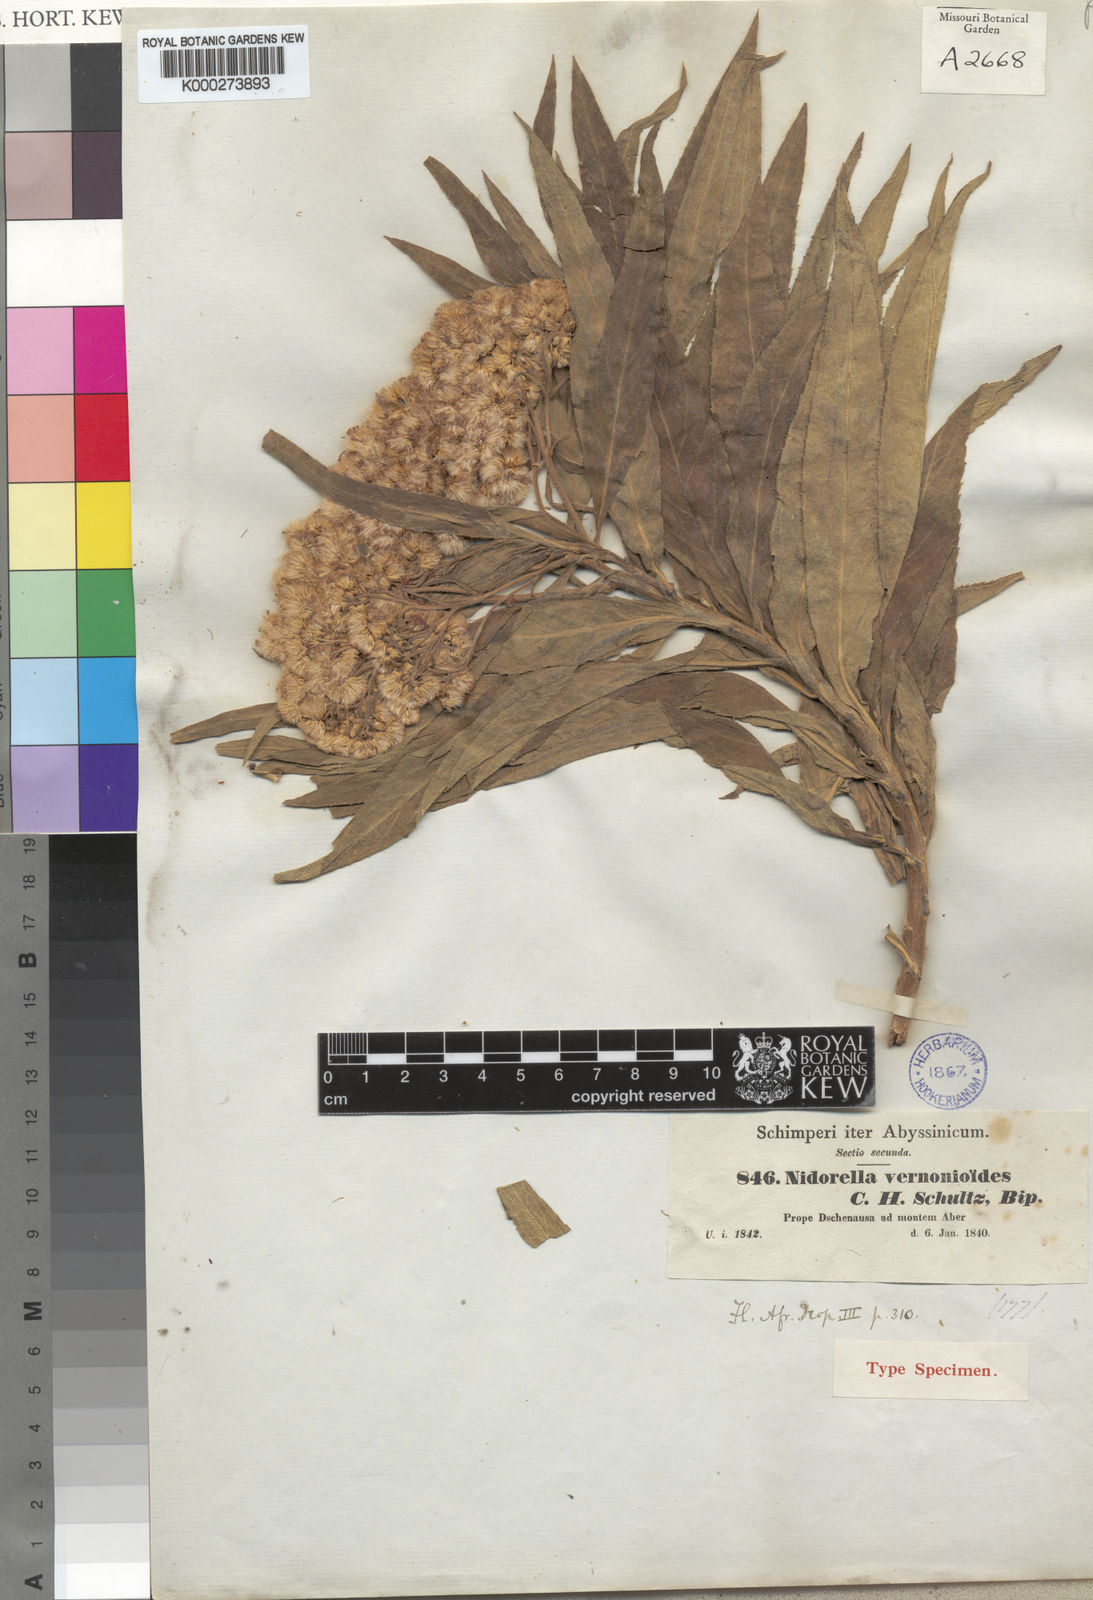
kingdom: Plantae
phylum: Tracheophyta
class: Magnoliopsida
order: Asterales
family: Asteraceae
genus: Nidorella
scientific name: Nidorella vernonioides
